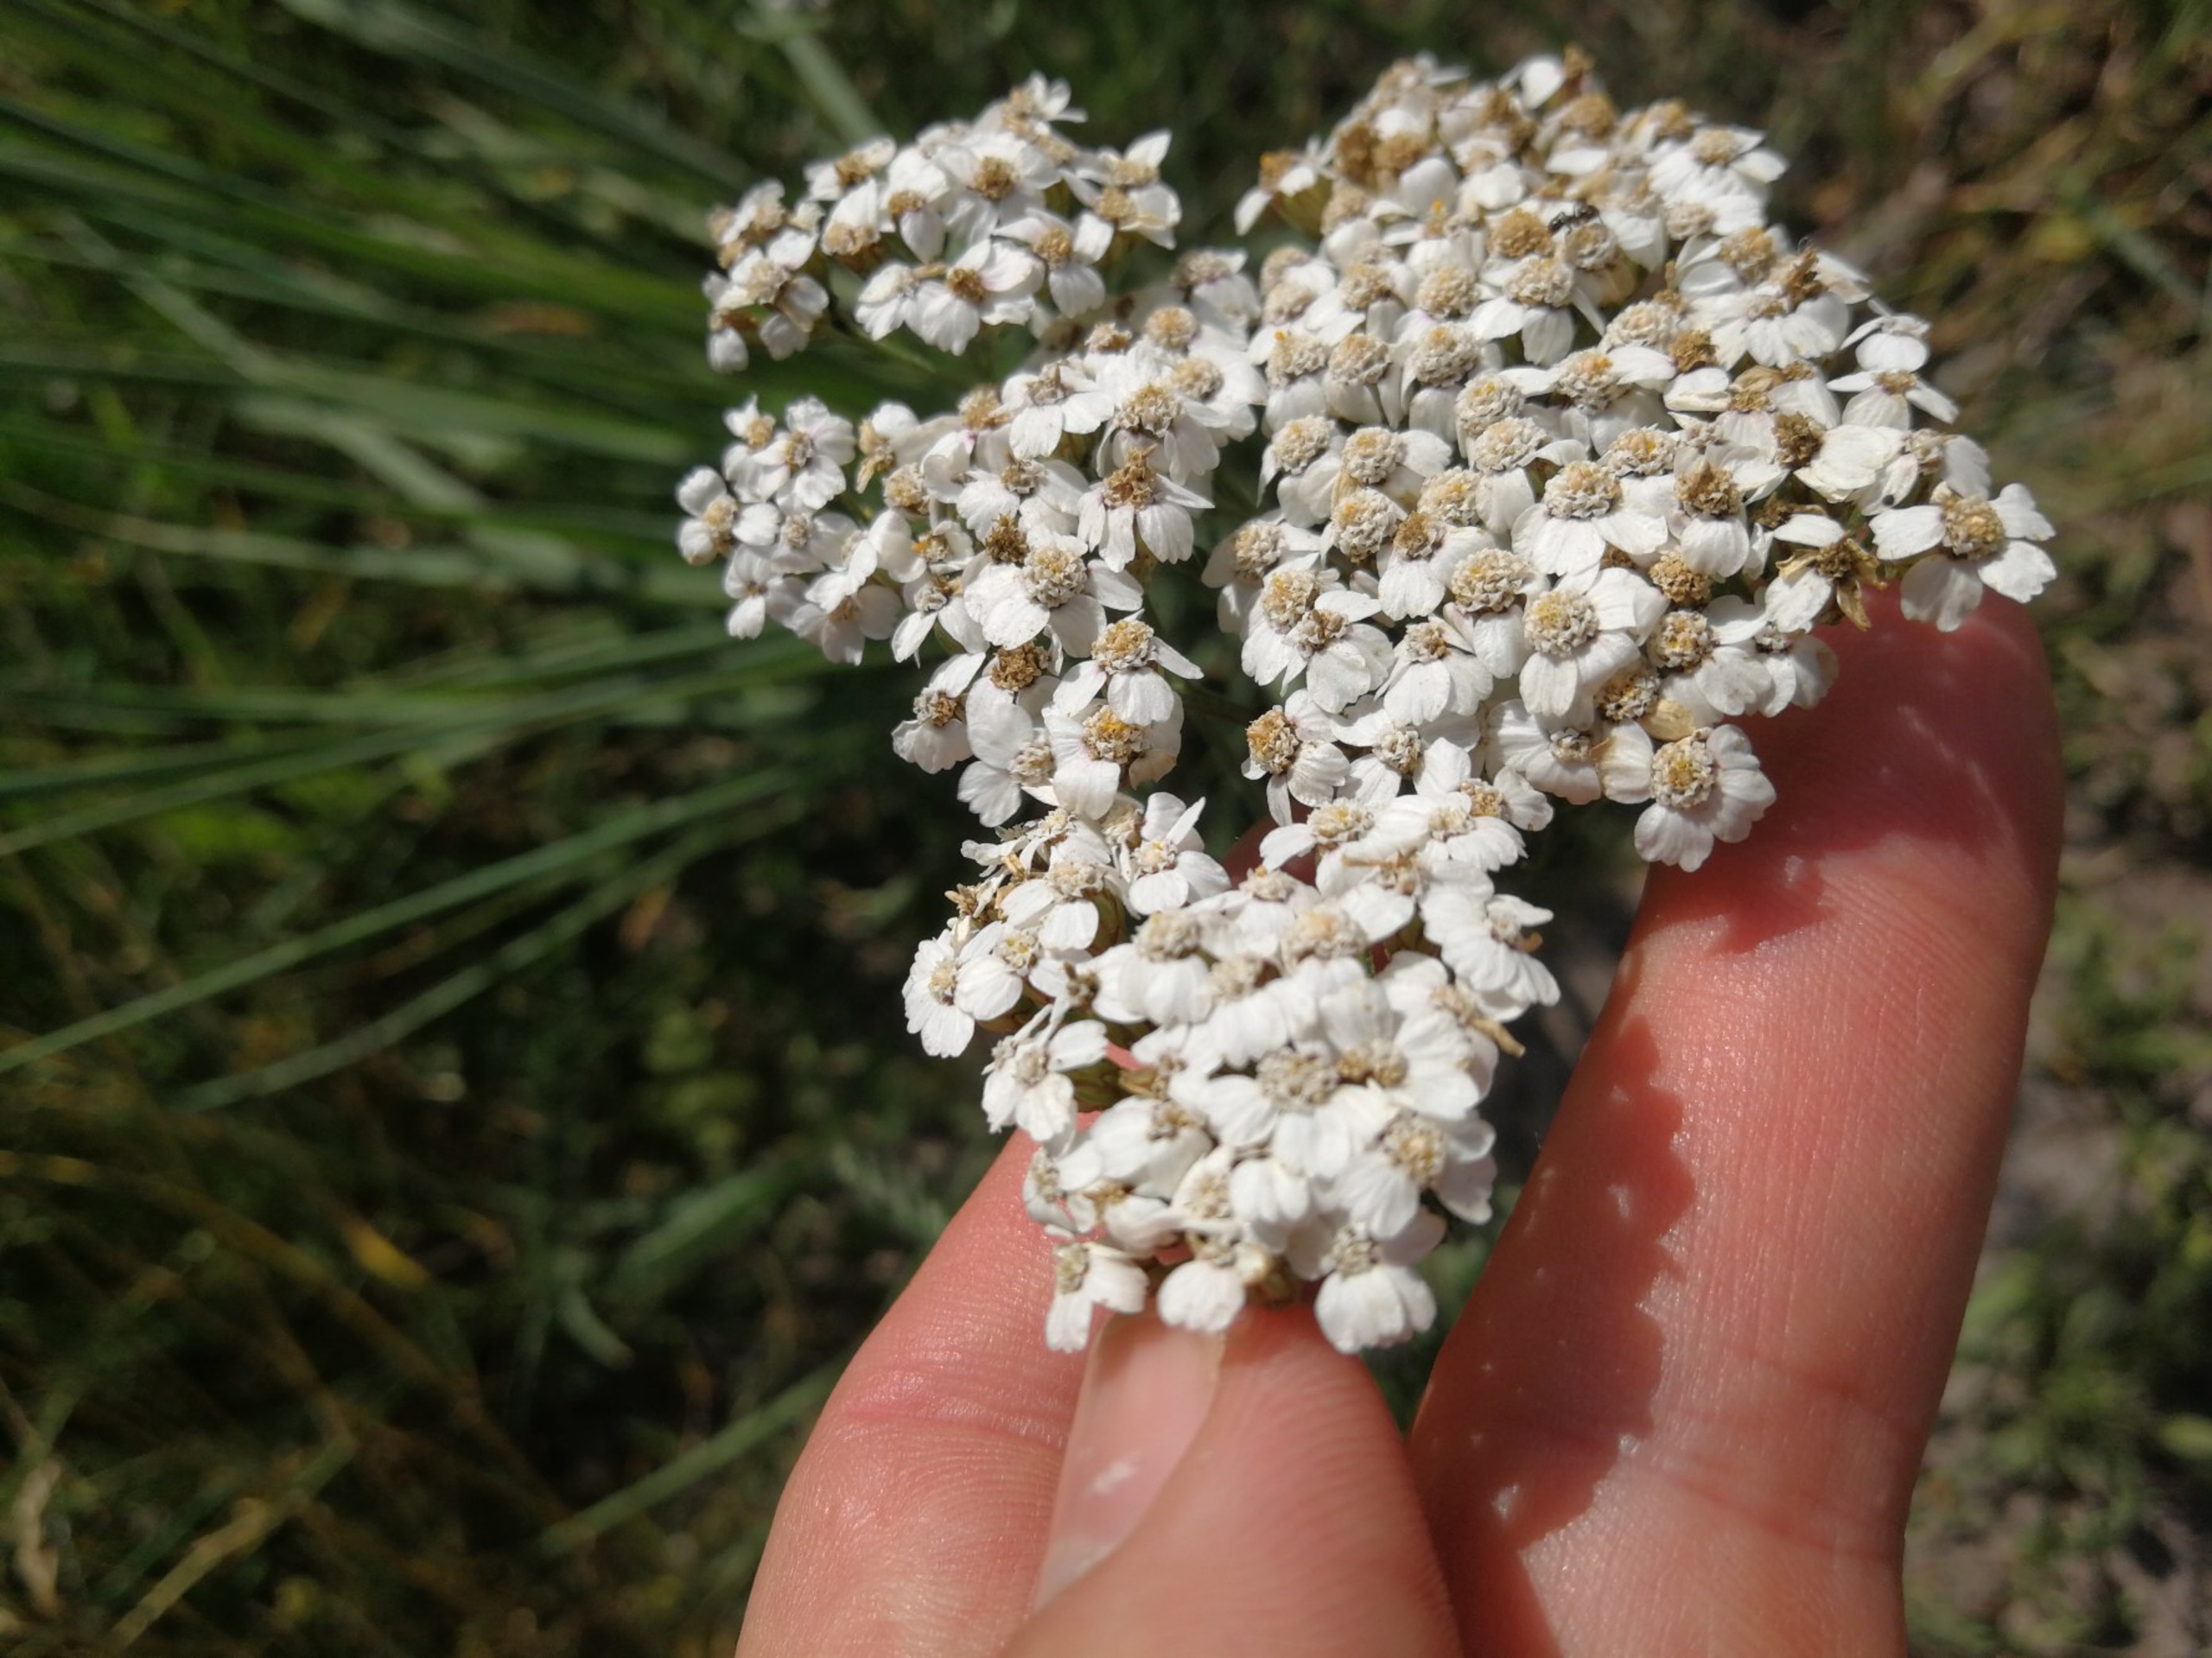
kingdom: Plantae
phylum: Tracheophyta
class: Magnoliopsida
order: Asterales
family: Asteraceae
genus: Achillea
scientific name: Achillea millefolium
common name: Almindelig røllike
